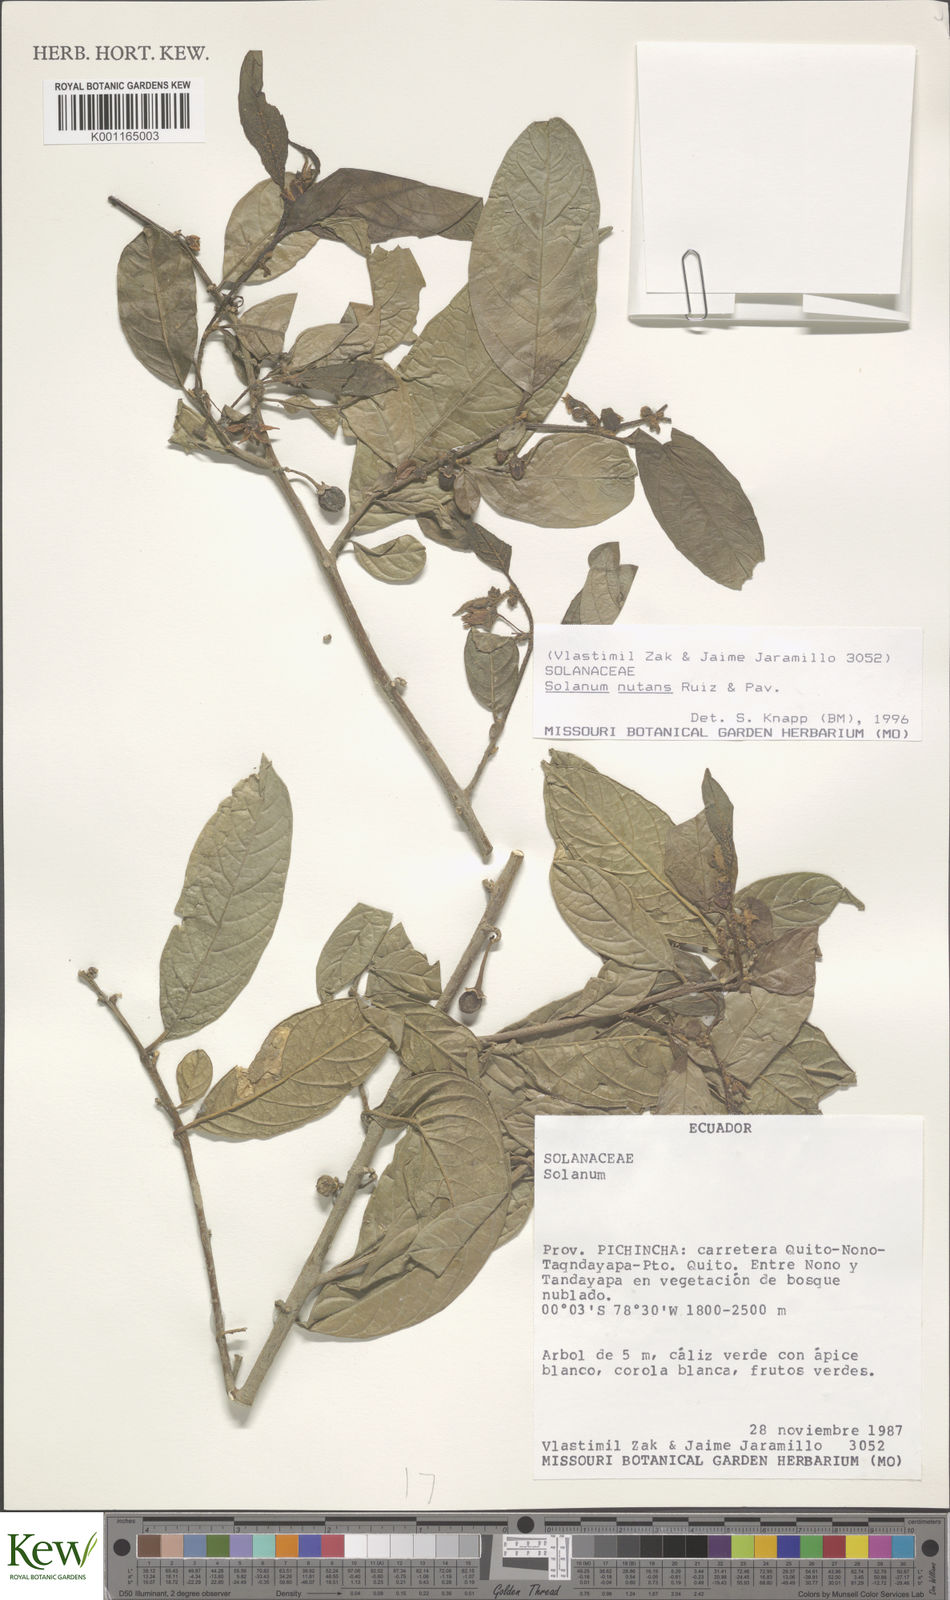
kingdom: Plantae
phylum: Tracheophyta
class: Magnoliopsida
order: Solanales
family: Solanaceae
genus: Solanum
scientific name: Solanum nutans
